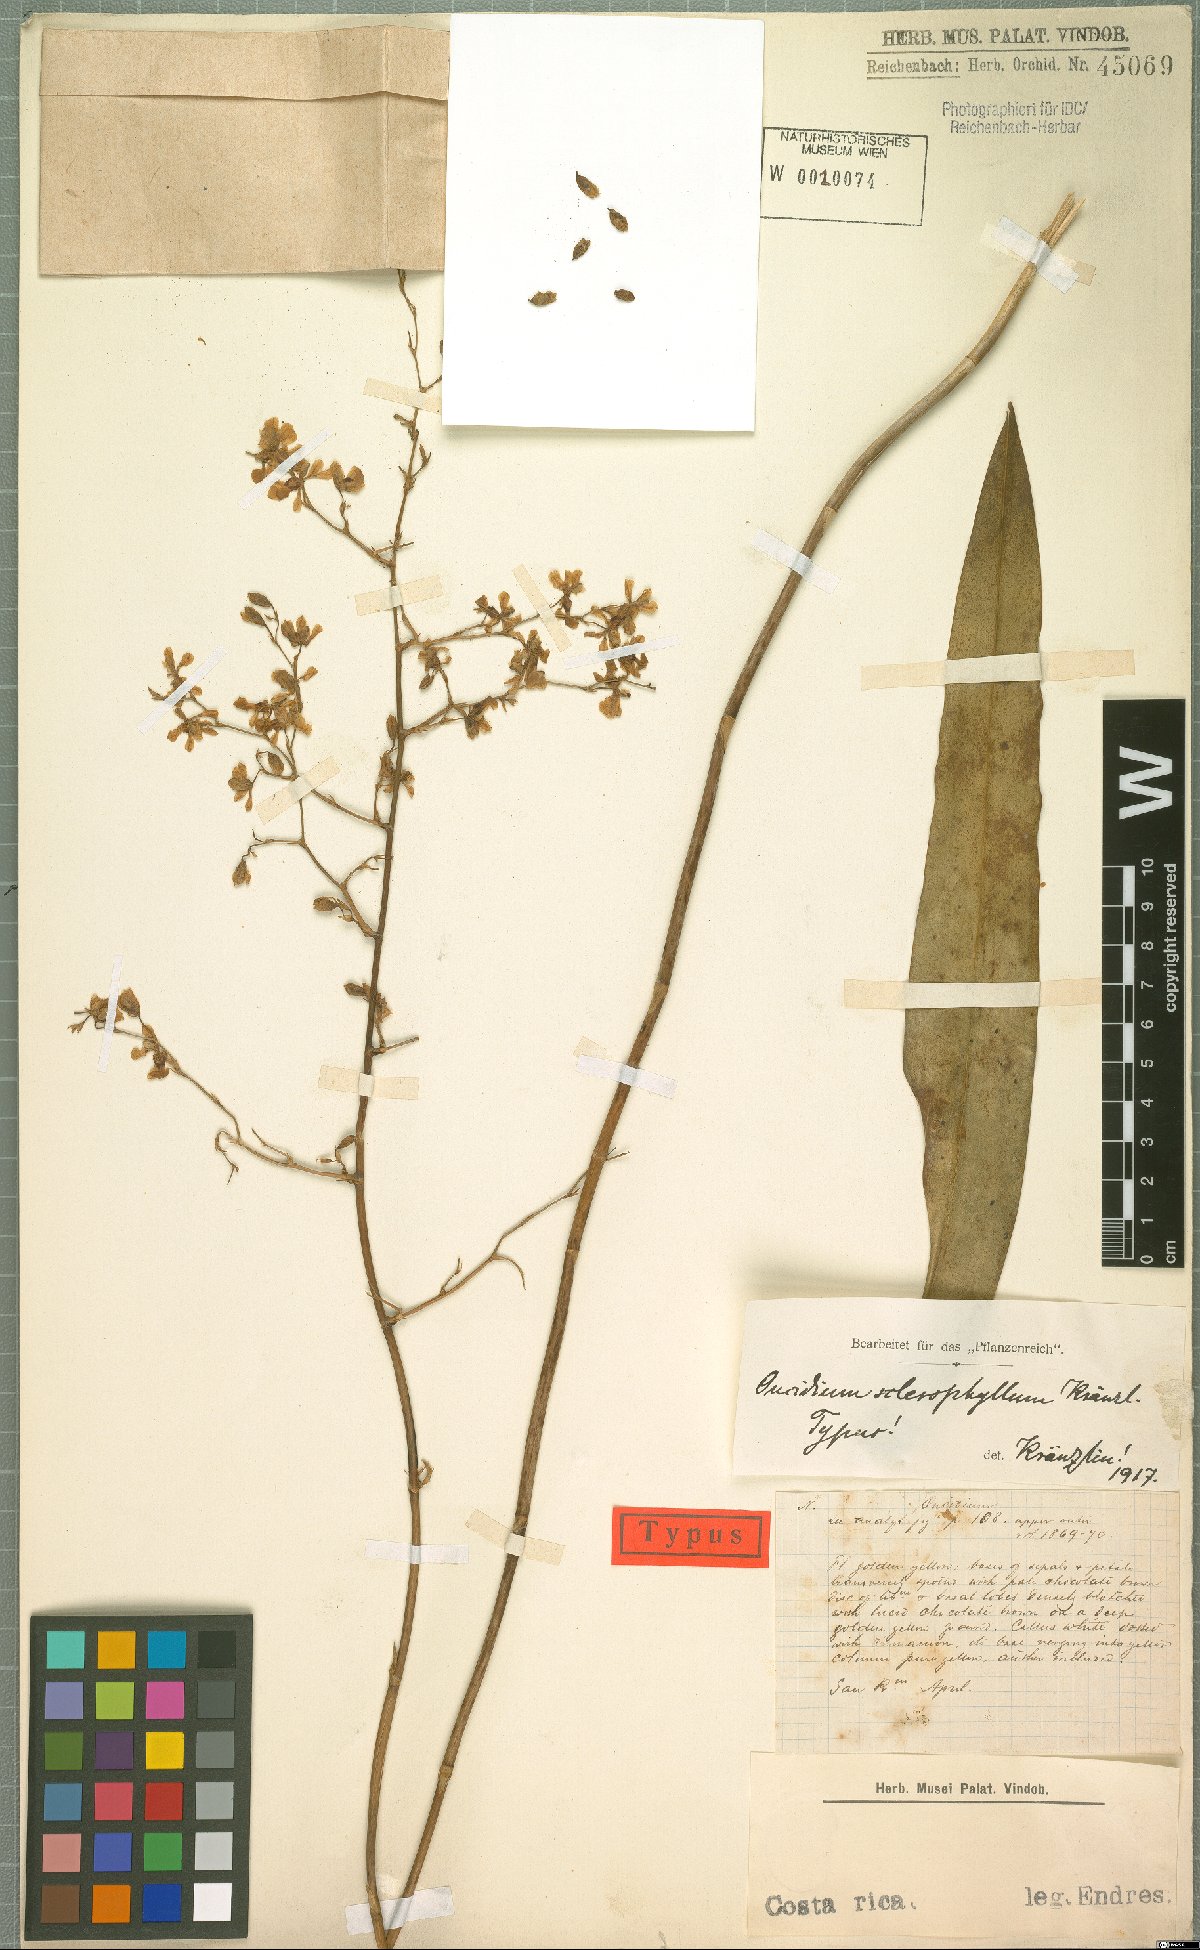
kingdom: Plantae
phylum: Tracheophyta
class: Liliopsida
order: Asparagales
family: Orchidaceae
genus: Oncidium
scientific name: Oncidium nebulosum
